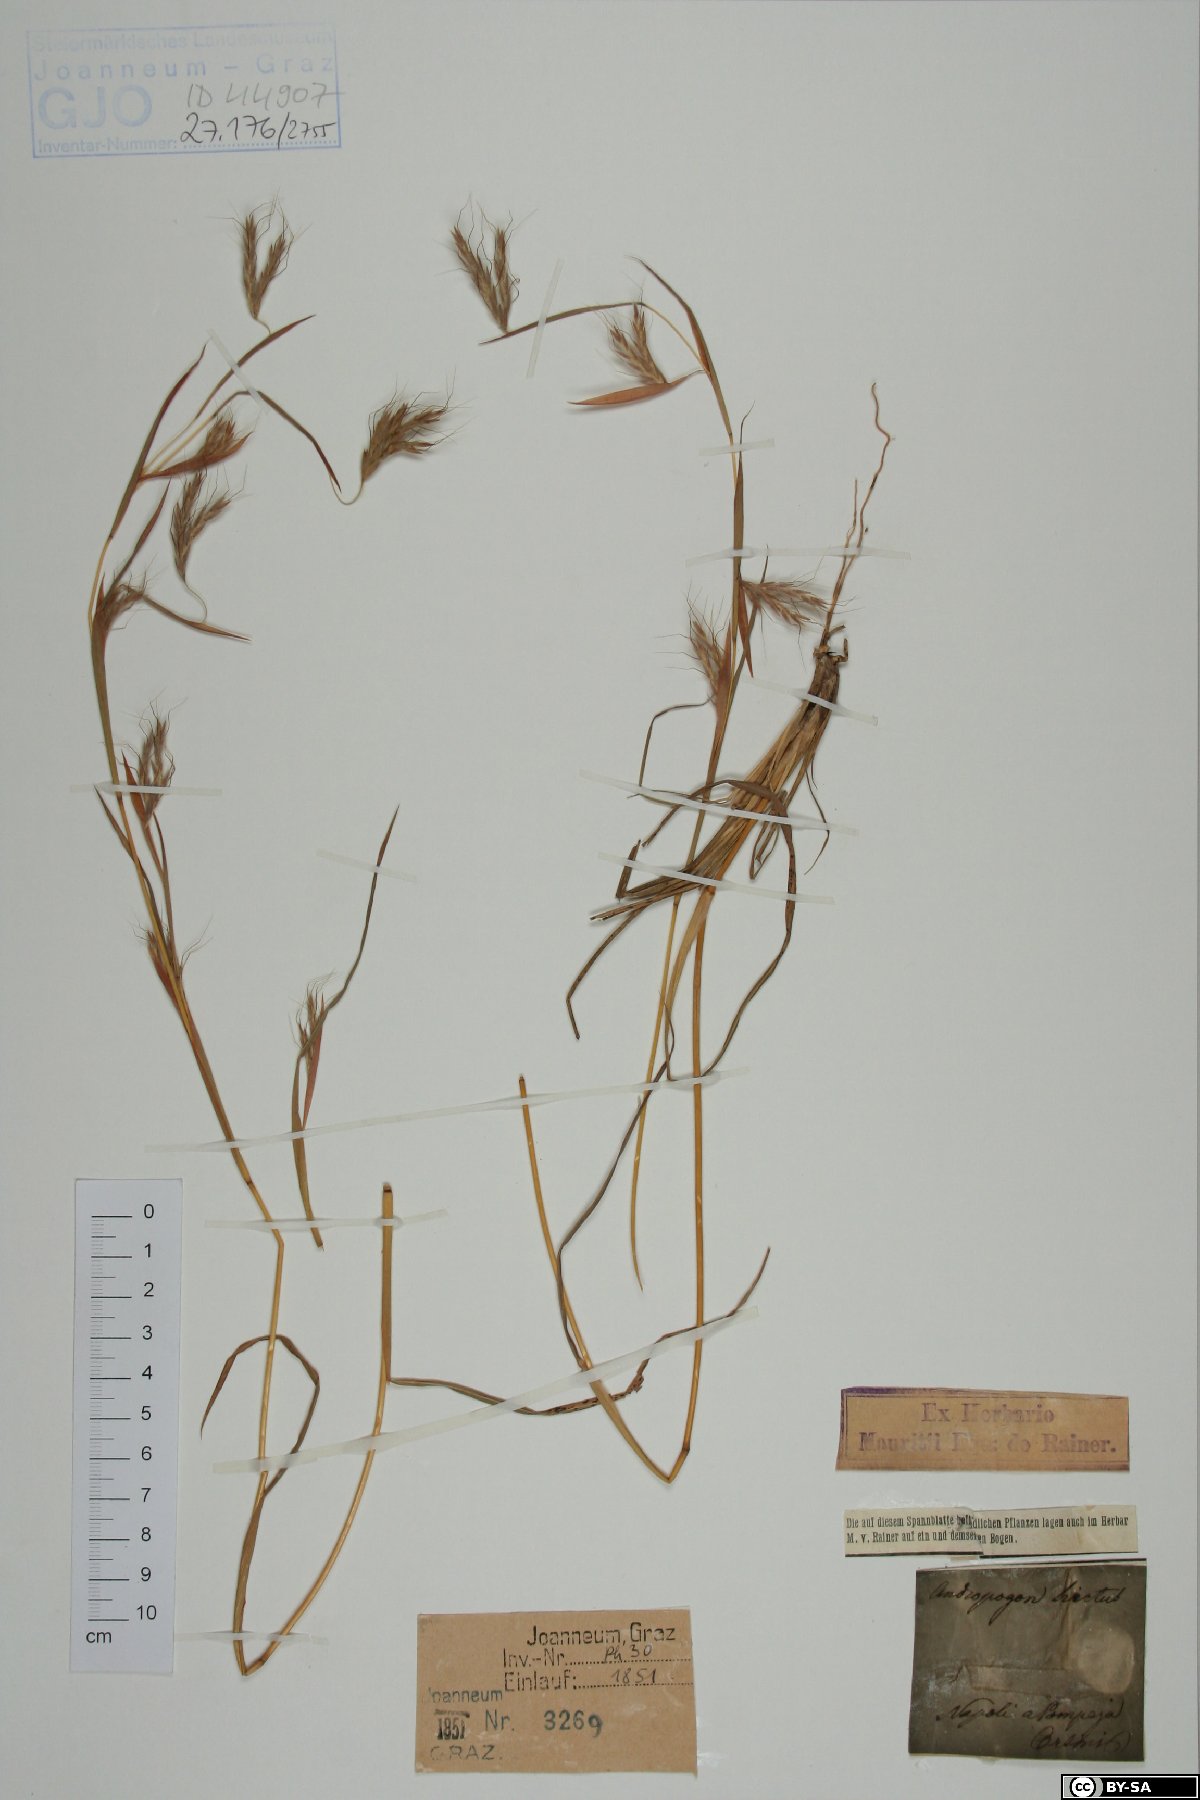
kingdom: Plantae
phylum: Tracheophyta
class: Liliopsida
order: Poales
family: Poaceae
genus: Hyparrhenia
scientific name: Hyparrhenia hirta
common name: Thatching grass
